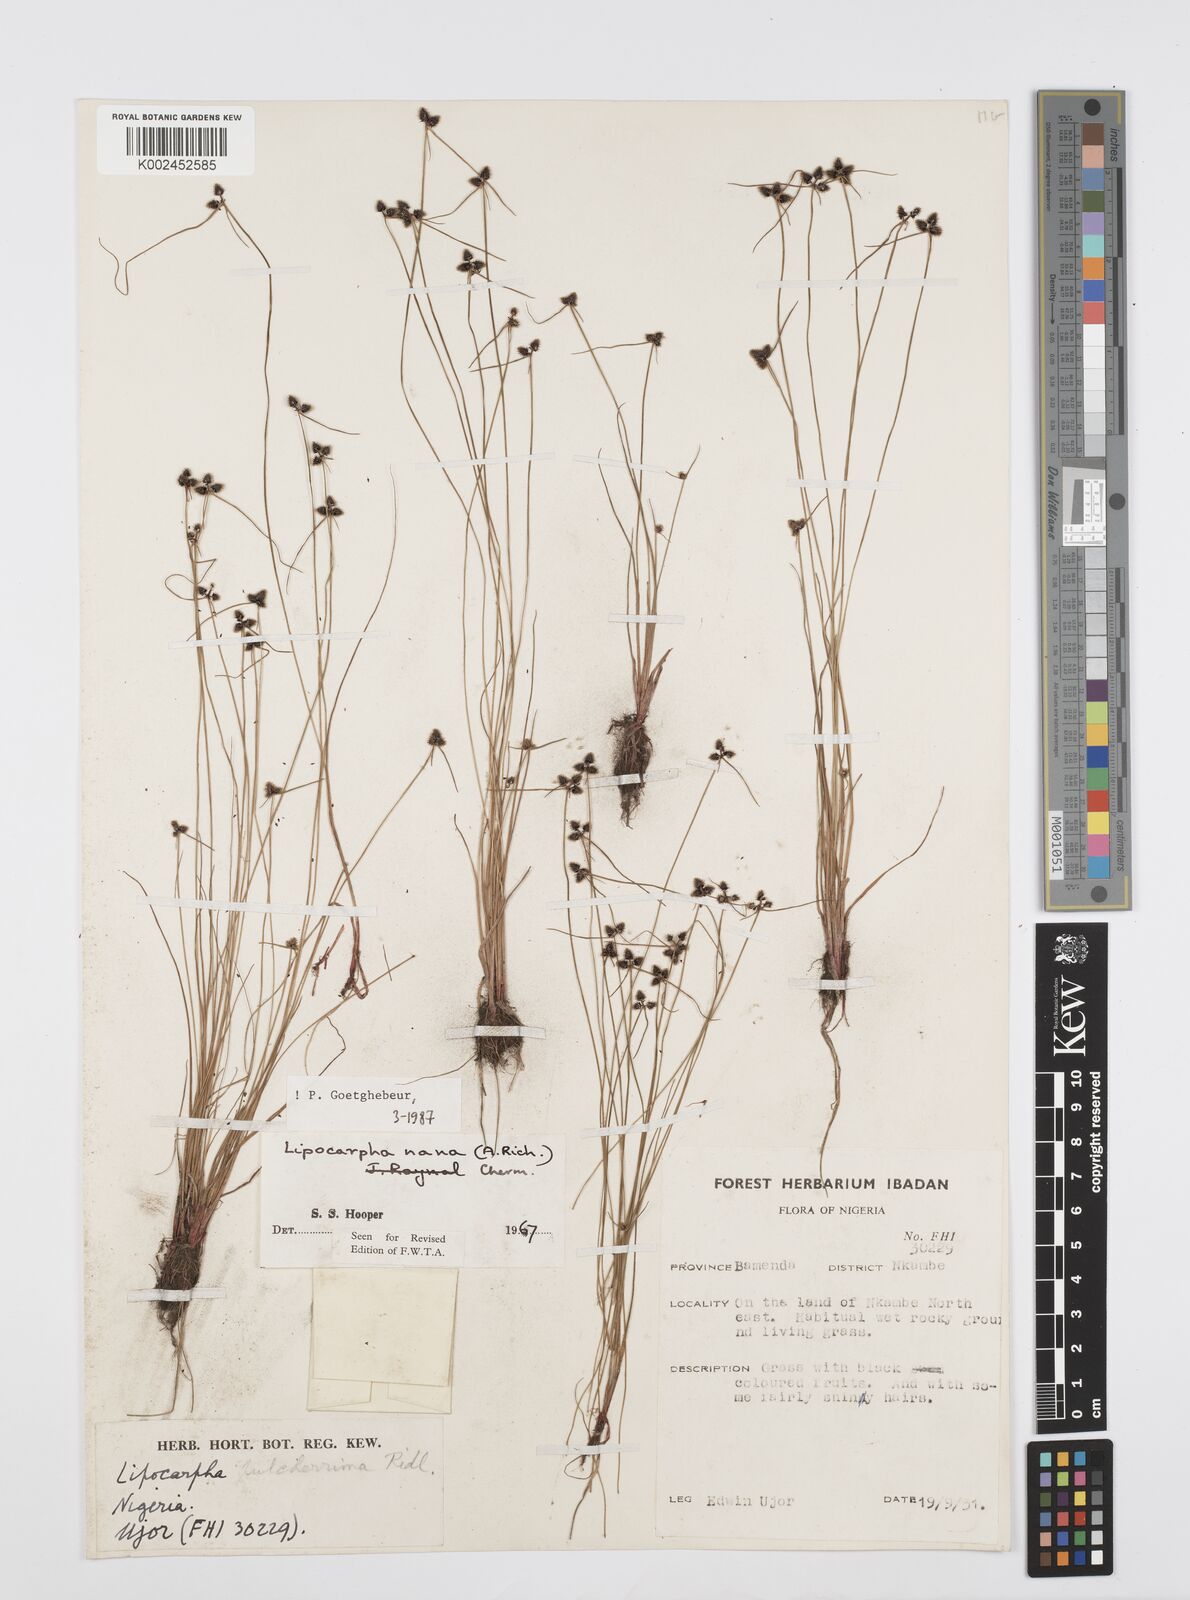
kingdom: Plantae
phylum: Tracheophyta
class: Liliopsida
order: Poales
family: Cyperaceae
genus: Cyperus
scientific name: Cyperus persquarrosus
